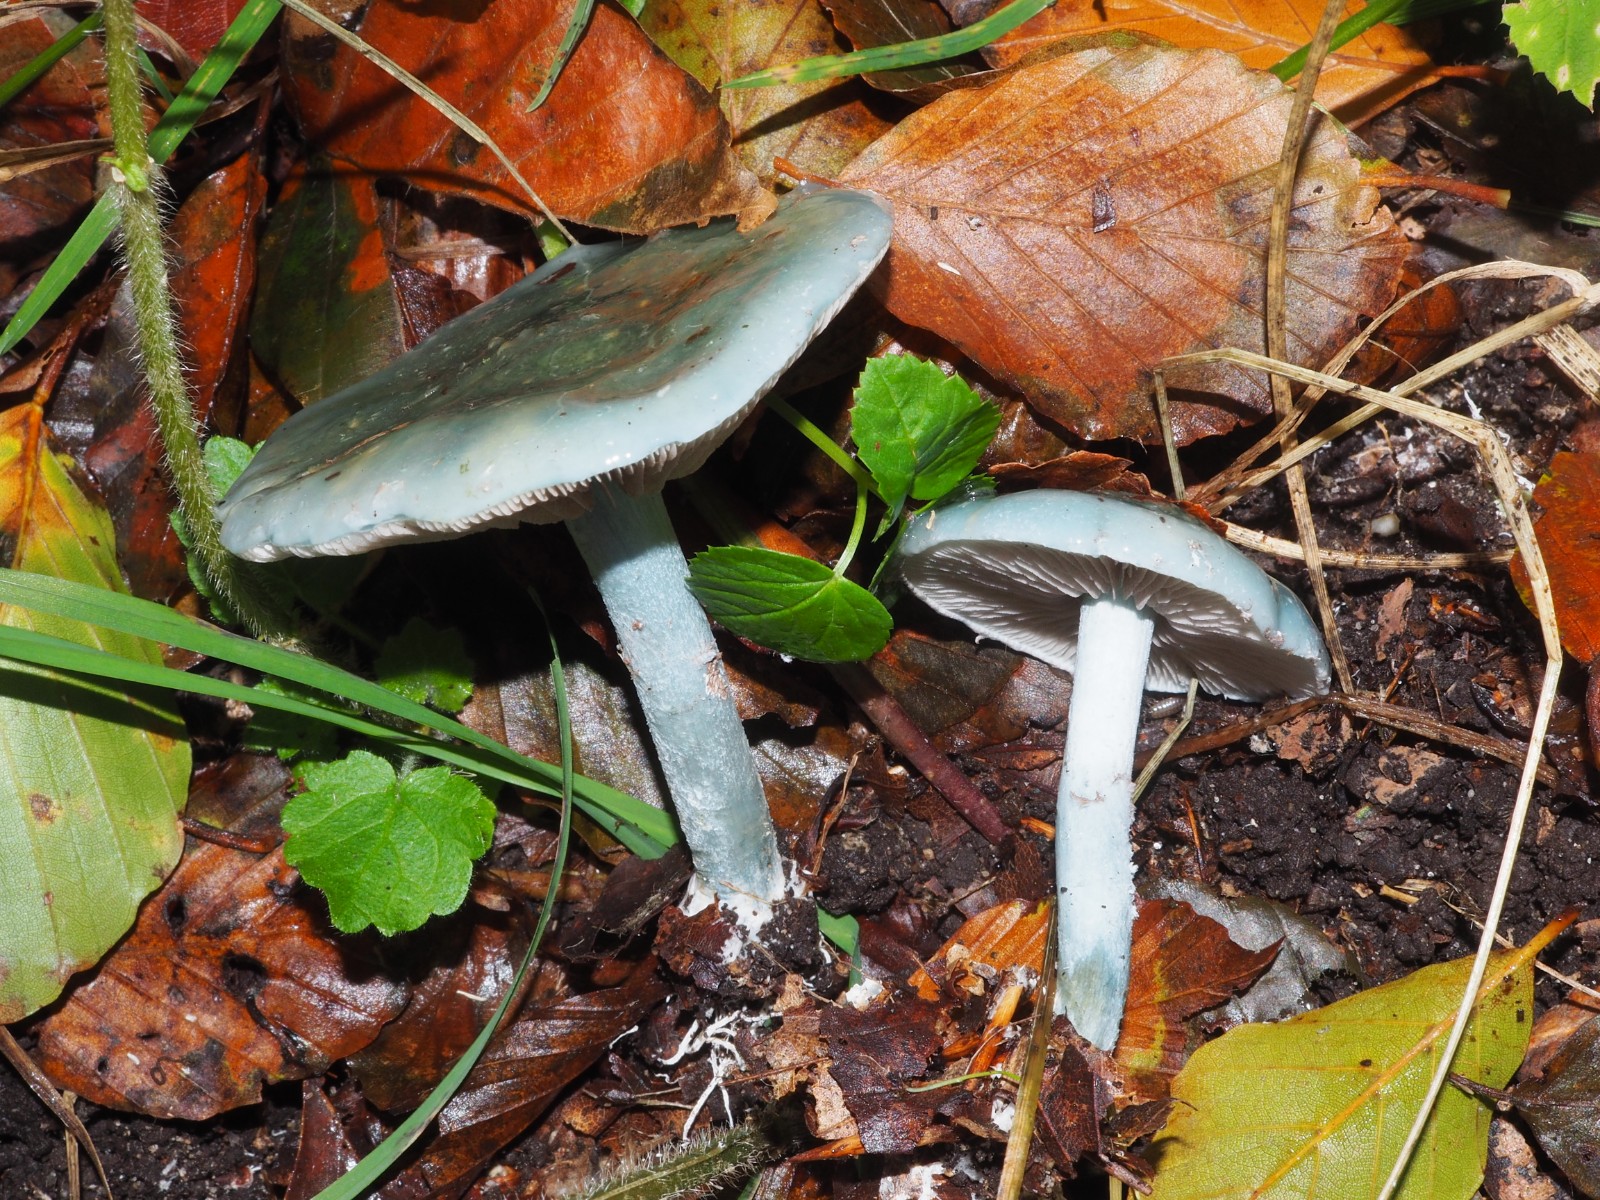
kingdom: Fungi
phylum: Basidiomycota
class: Agaricomycetes
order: Agaricales
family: Strophariaceae
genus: Stropharia
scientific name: Stropharia cyanea
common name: blågrøn bredblad
